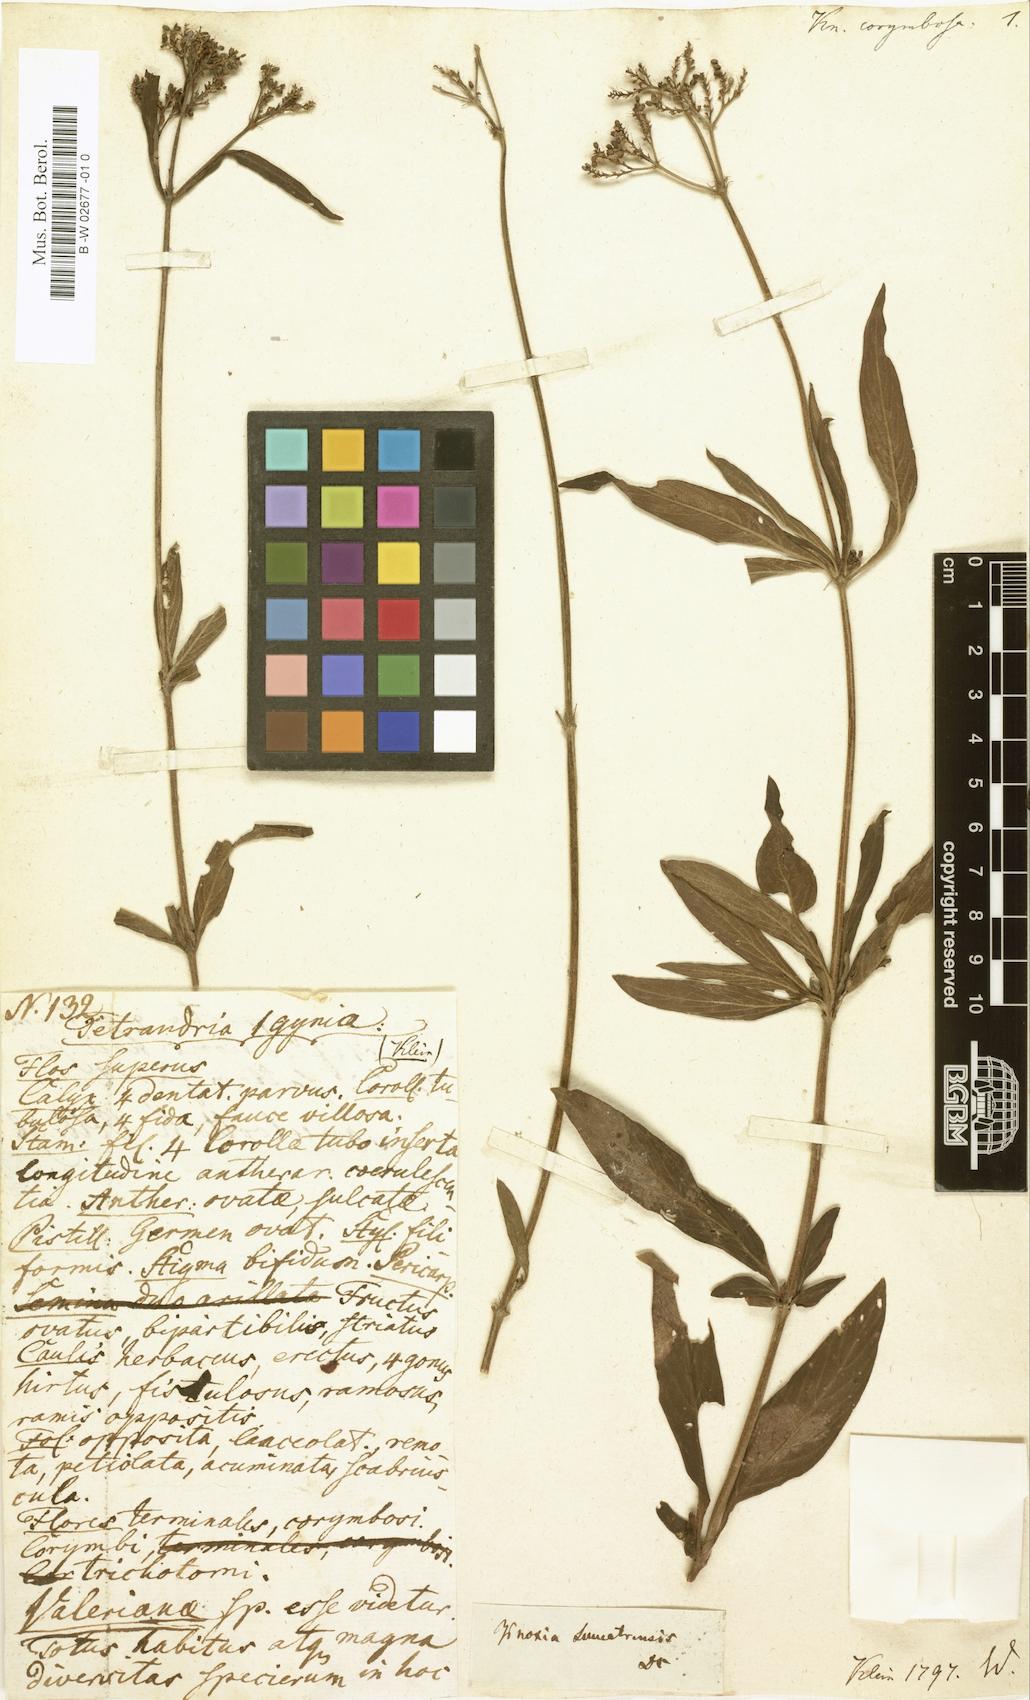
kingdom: Plantae
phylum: Tracheophyta
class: Magnoliopsida
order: Gentianales
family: Rubiaceae
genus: Knoxia
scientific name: Knoxia sumatrensis
